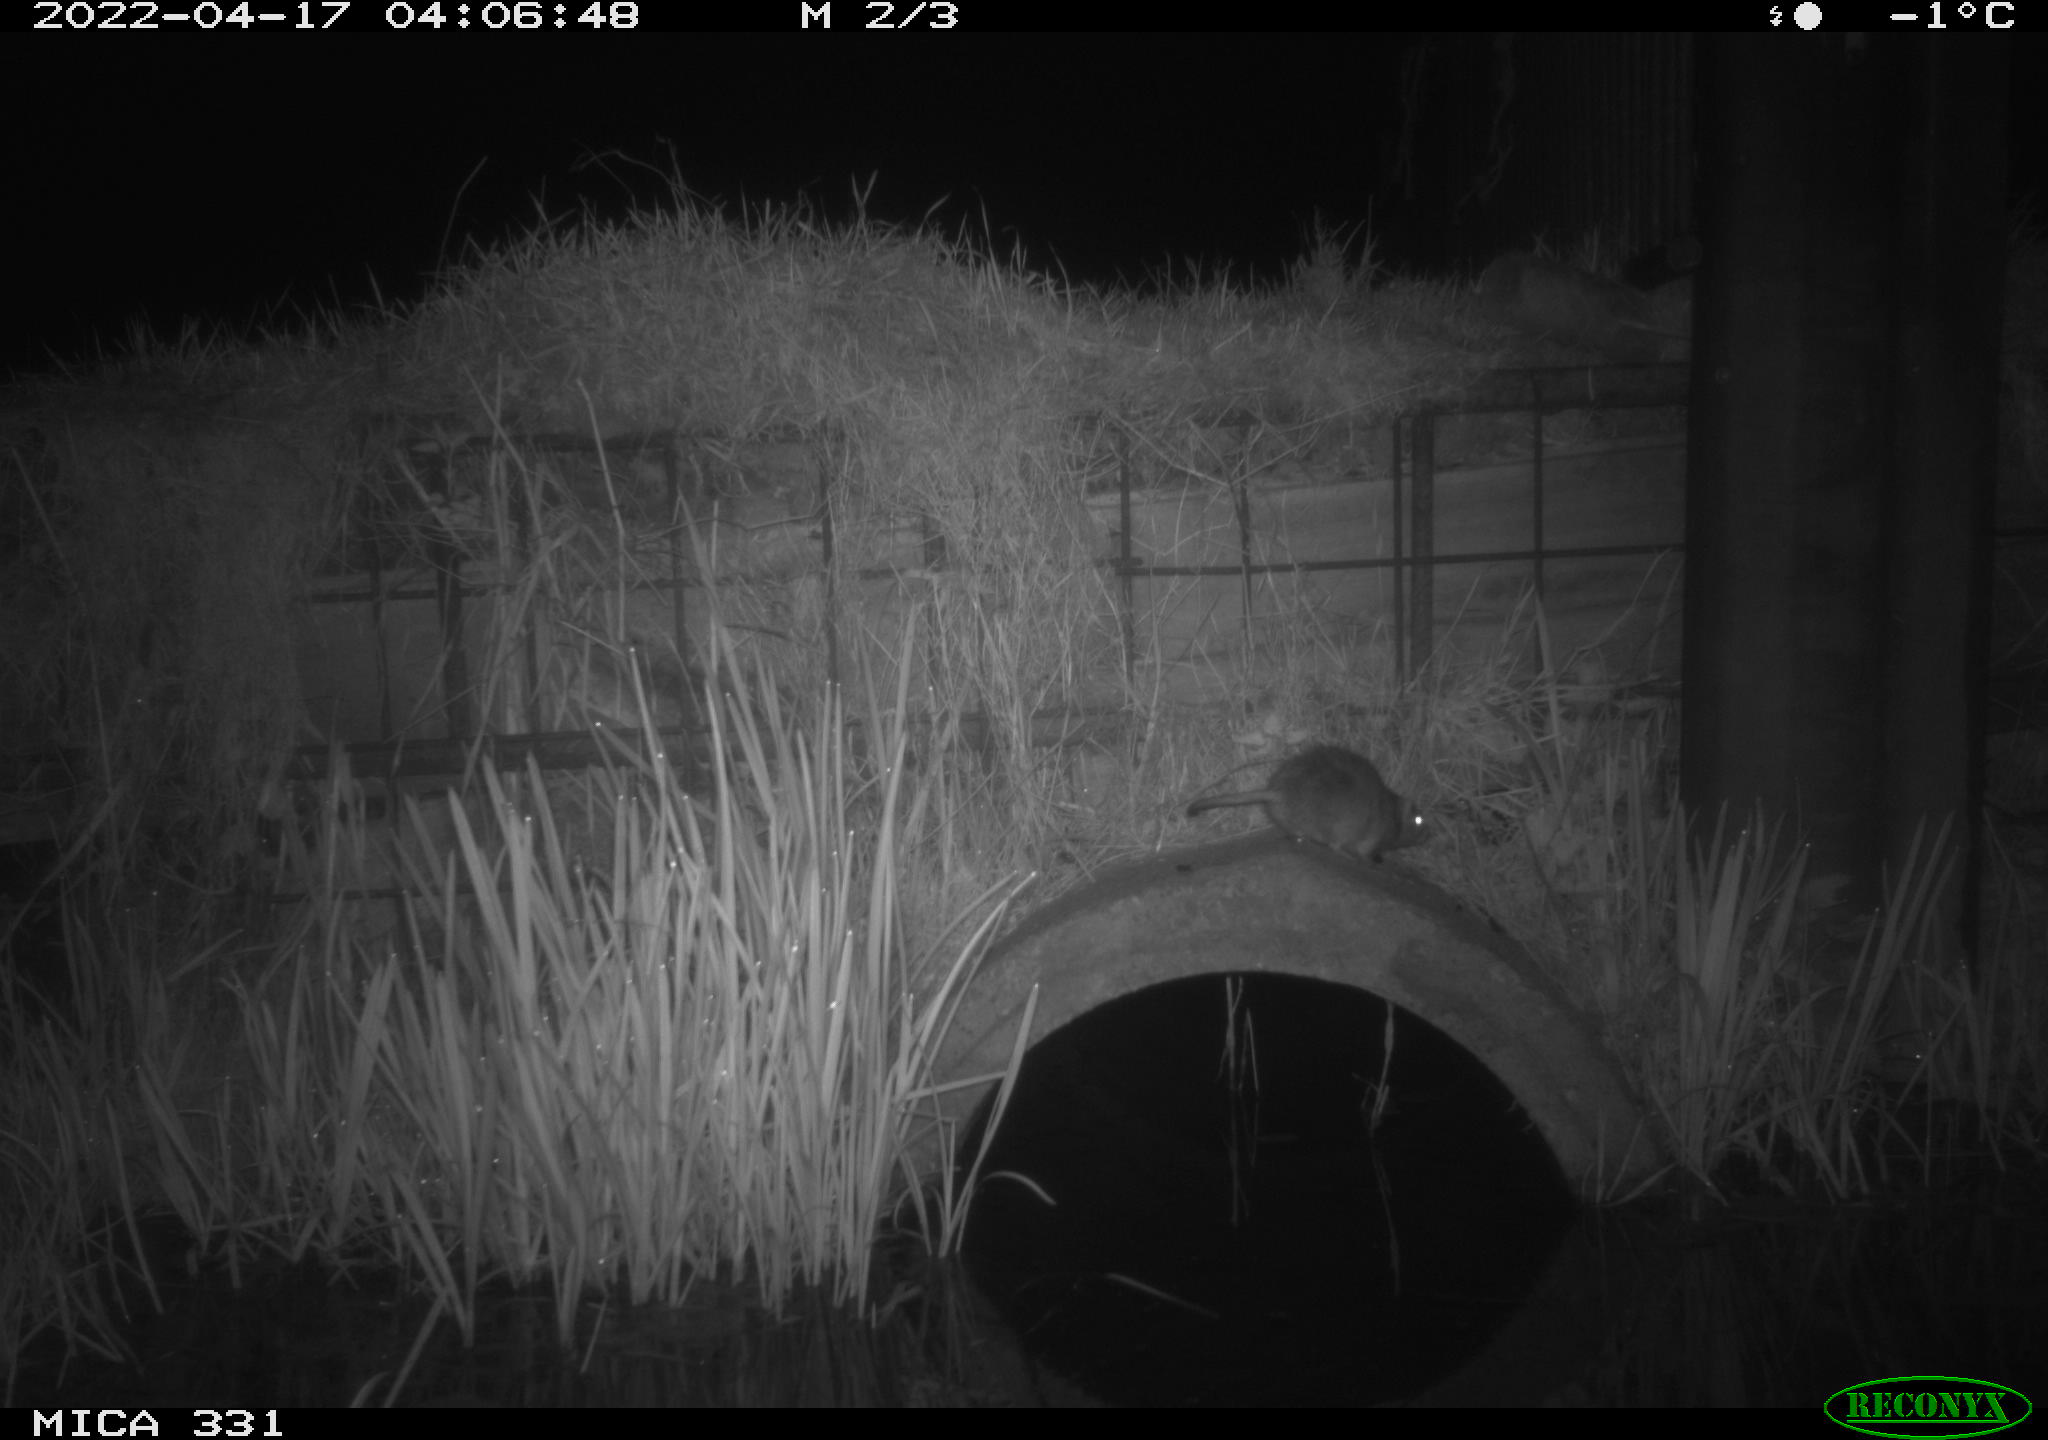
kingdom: Animalia
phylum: Chordata
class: Mammalia
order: Rodentia
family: Muridae
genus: Rattus
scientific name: Rattus norvegicus
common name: Brown rat
